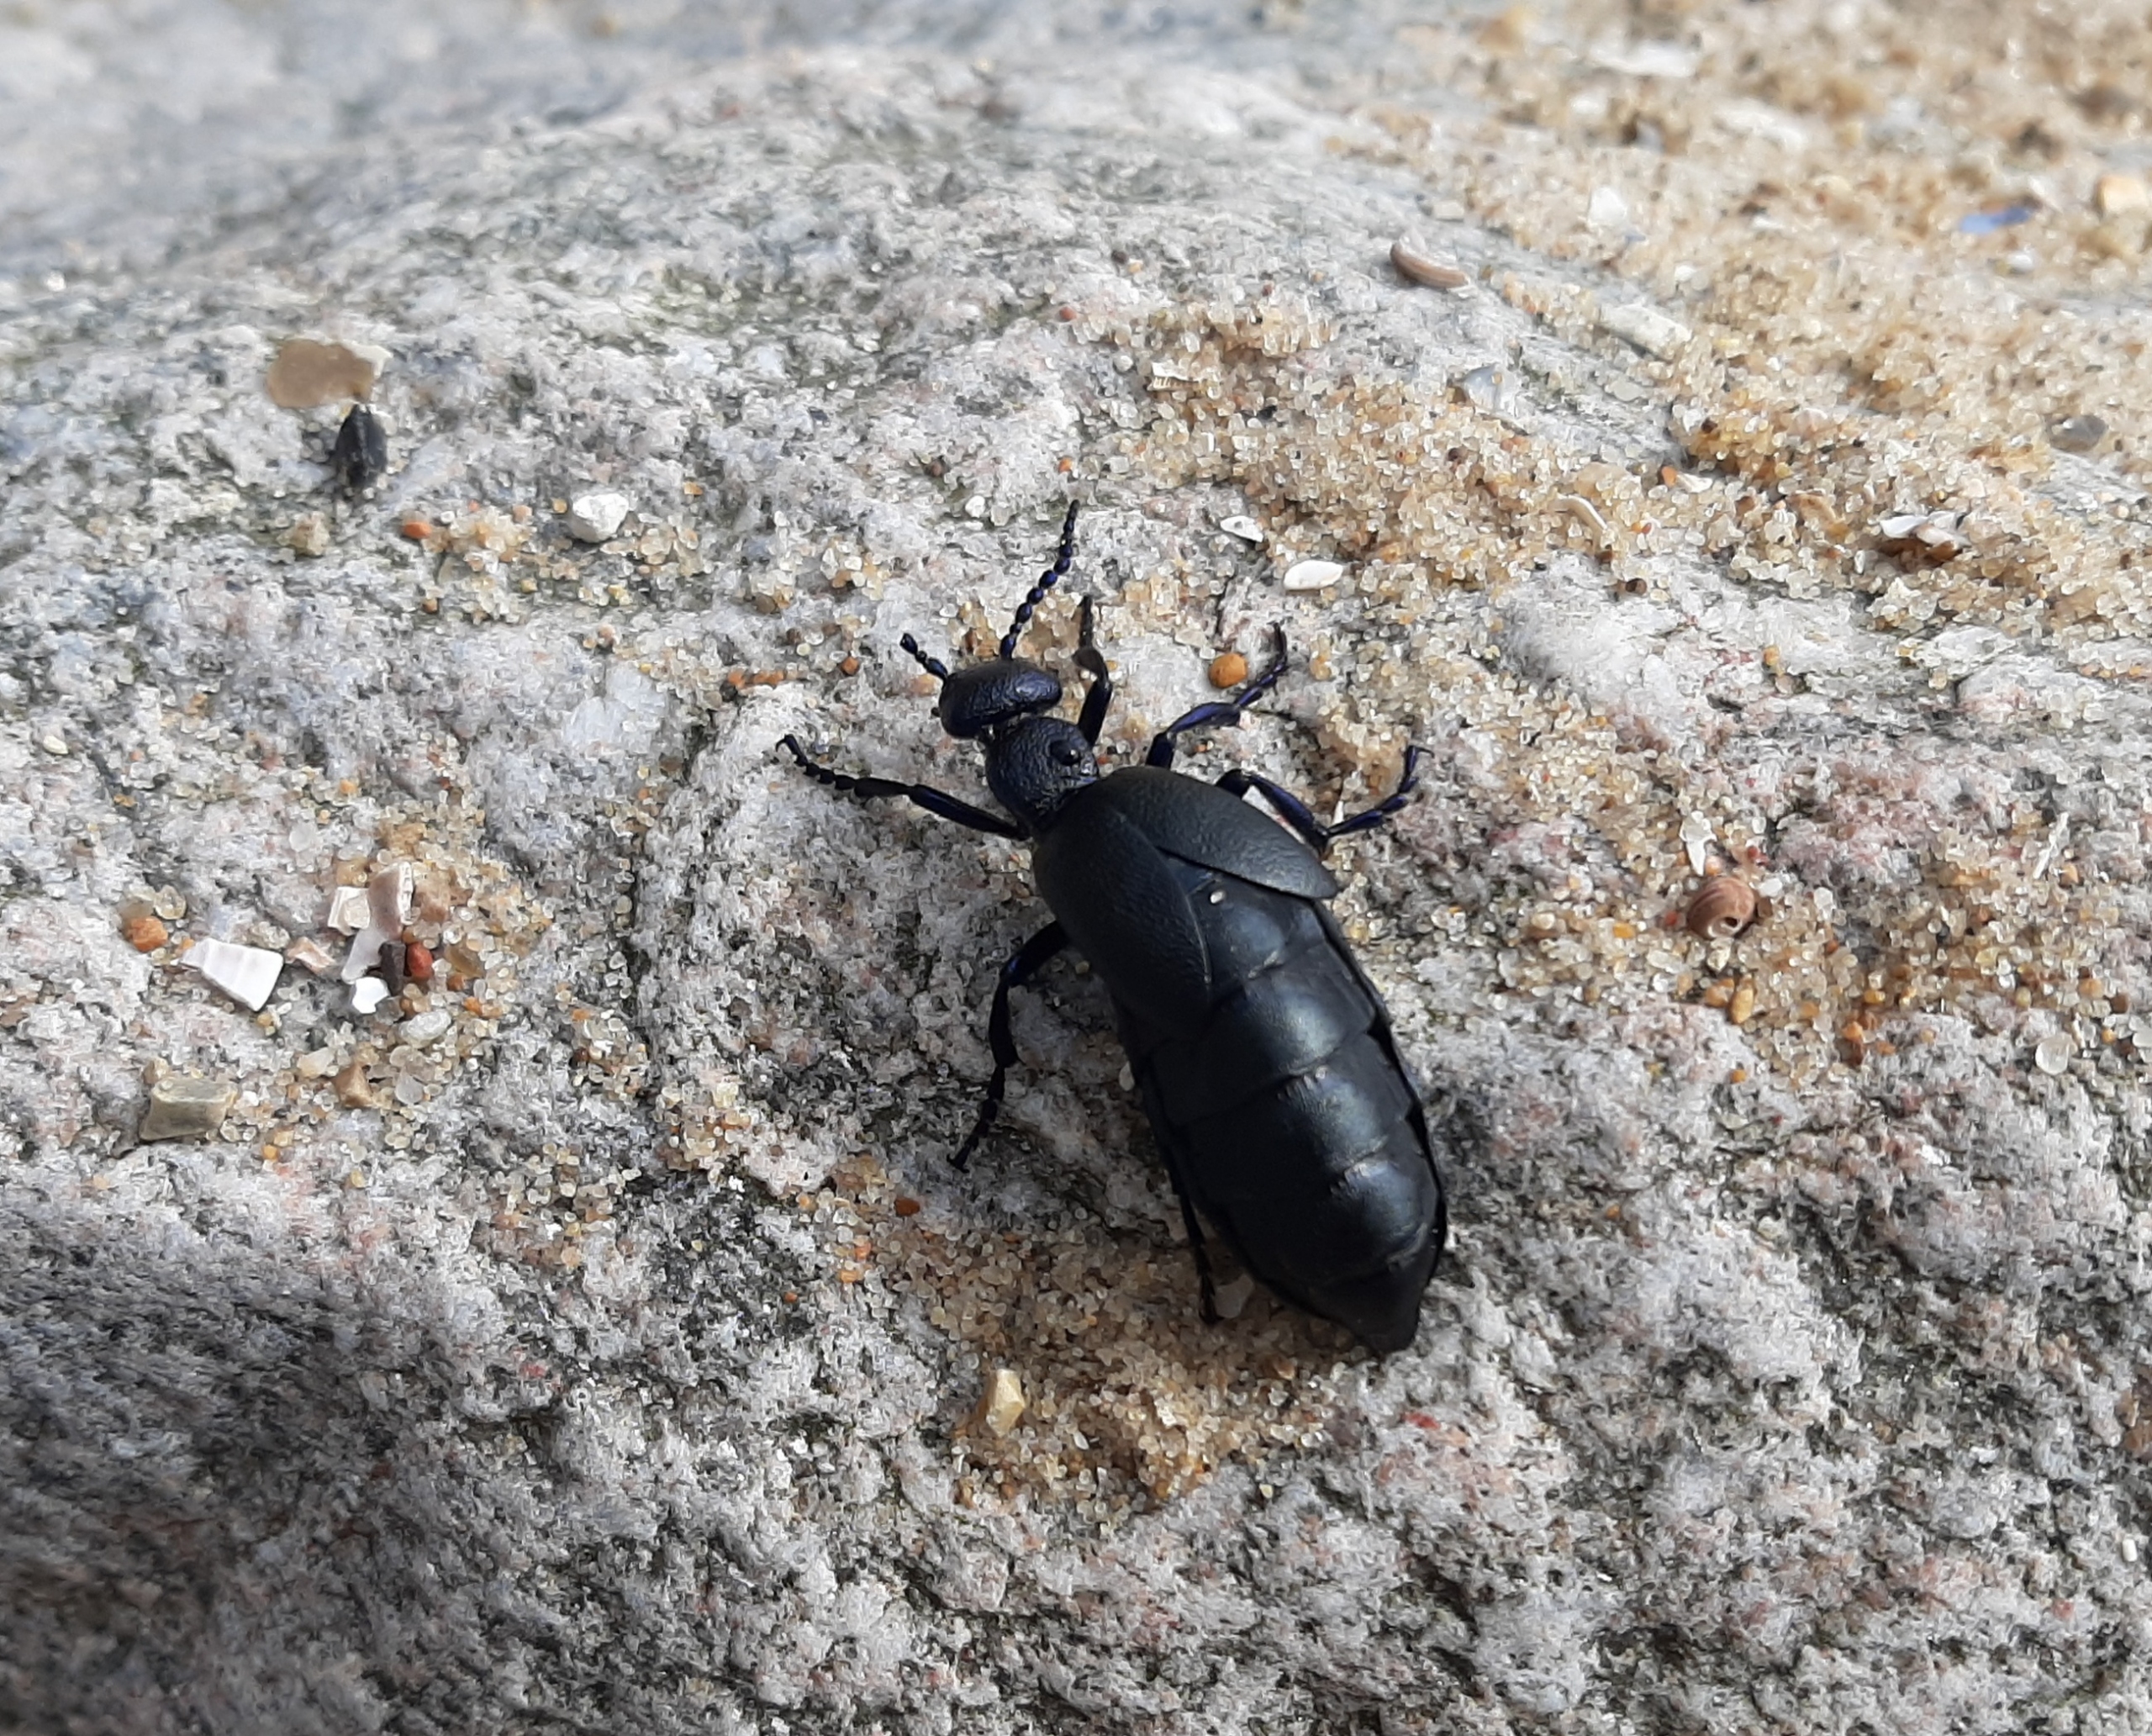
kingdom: Animalia
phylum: Arthropoda
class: Insecta
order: Coleoptera
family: Meloidae
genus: Meloe
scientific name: Meloe proscarabaeus
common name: Sort oliebille
